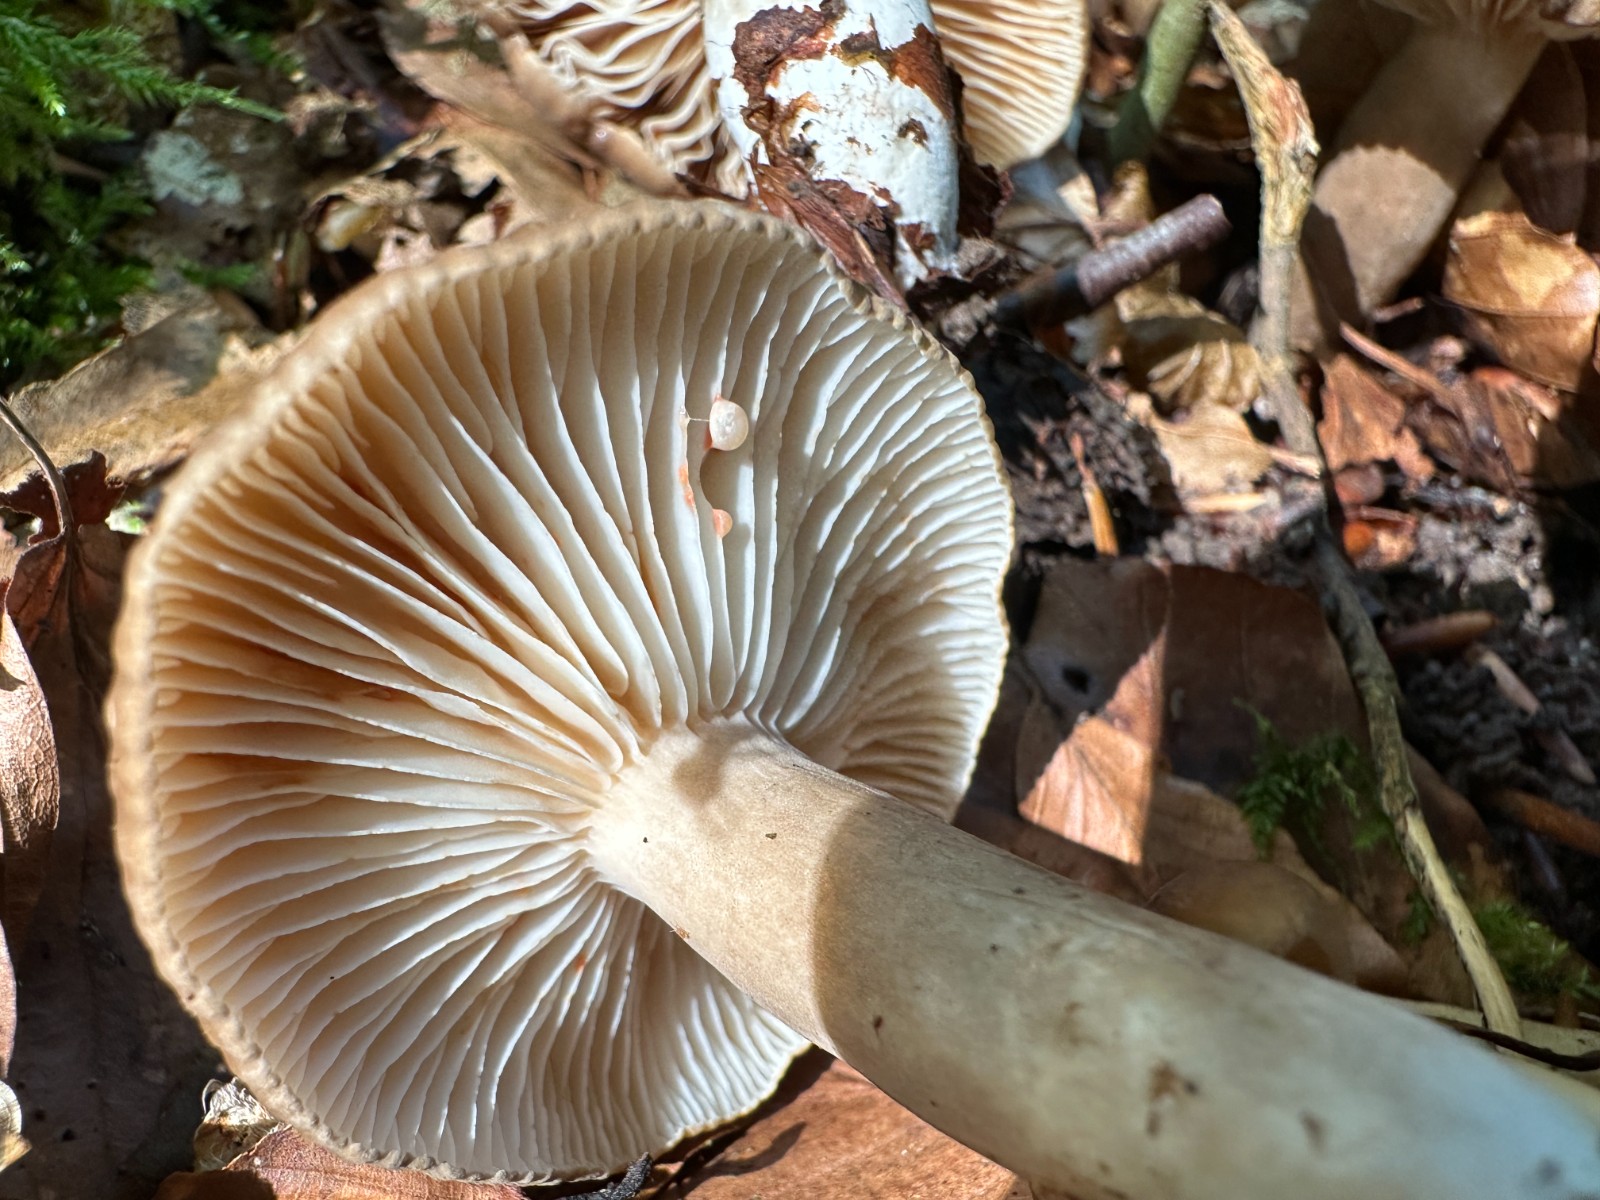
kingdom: Fungi
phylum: Basidiomycota
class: Agaricomycetes
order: Russulales
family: Russulaceae
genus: Lactarius
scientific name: Lactarius romagnesii
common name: fjernbladet mælkehat
